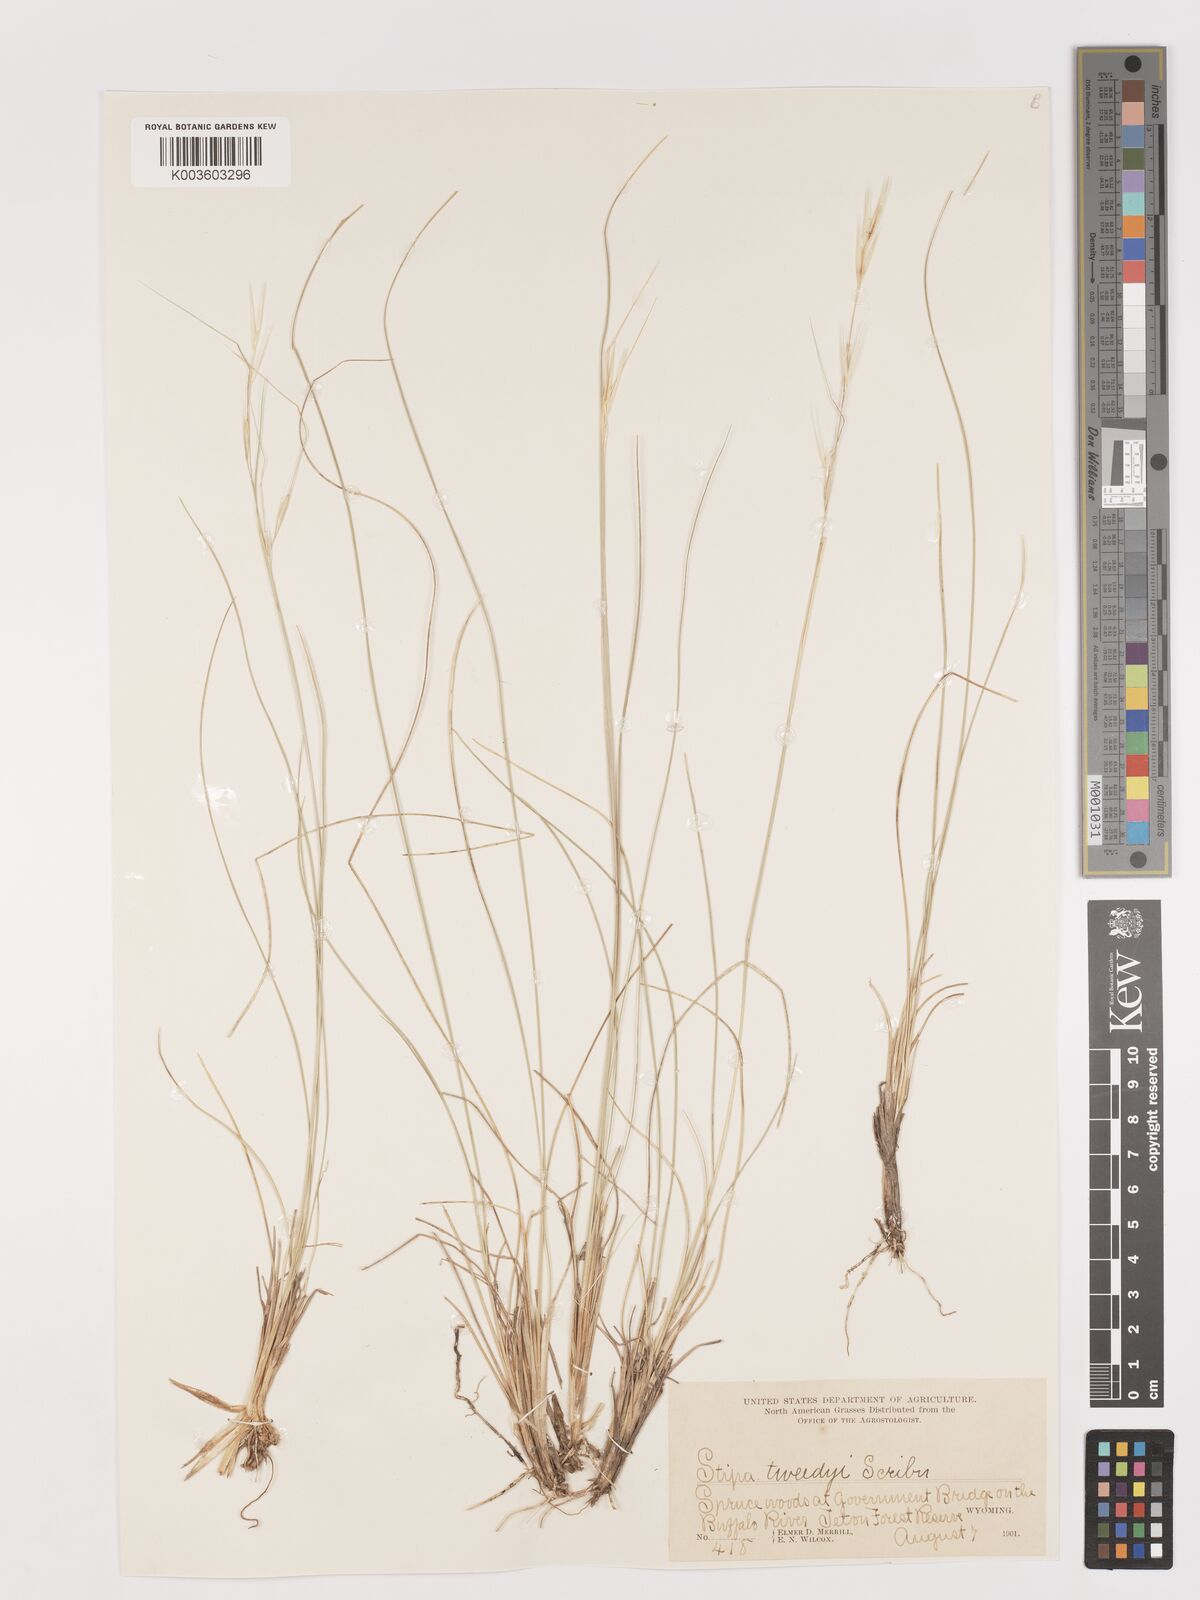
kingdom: Plantae
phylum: Tracheophyta
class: Liliopsida
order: Poales
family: Poaceae
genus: Stipa
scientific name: Stipa
